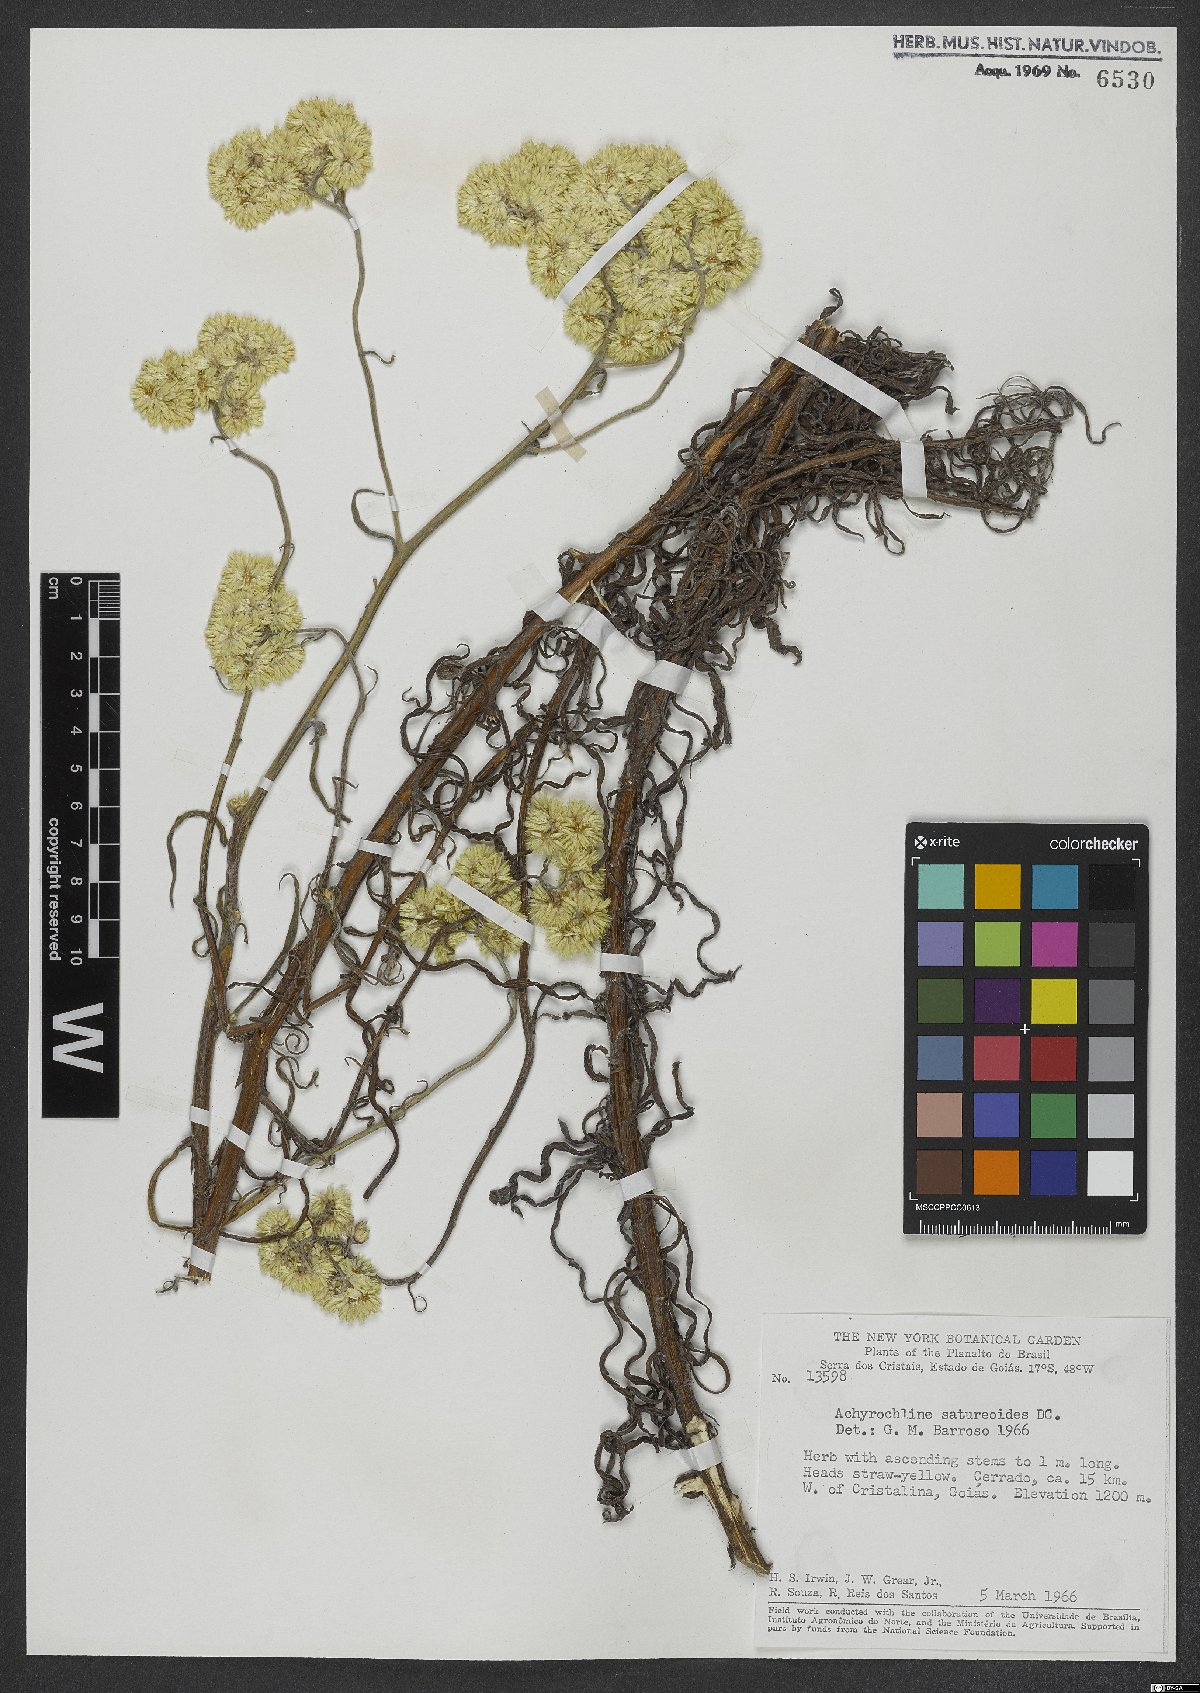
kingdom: Plantae
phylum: Tracheophyta
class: Magnoliopsida
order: Asterales
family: Asteraceae
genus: Achyrocline
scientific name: Achyrocline satureioides
